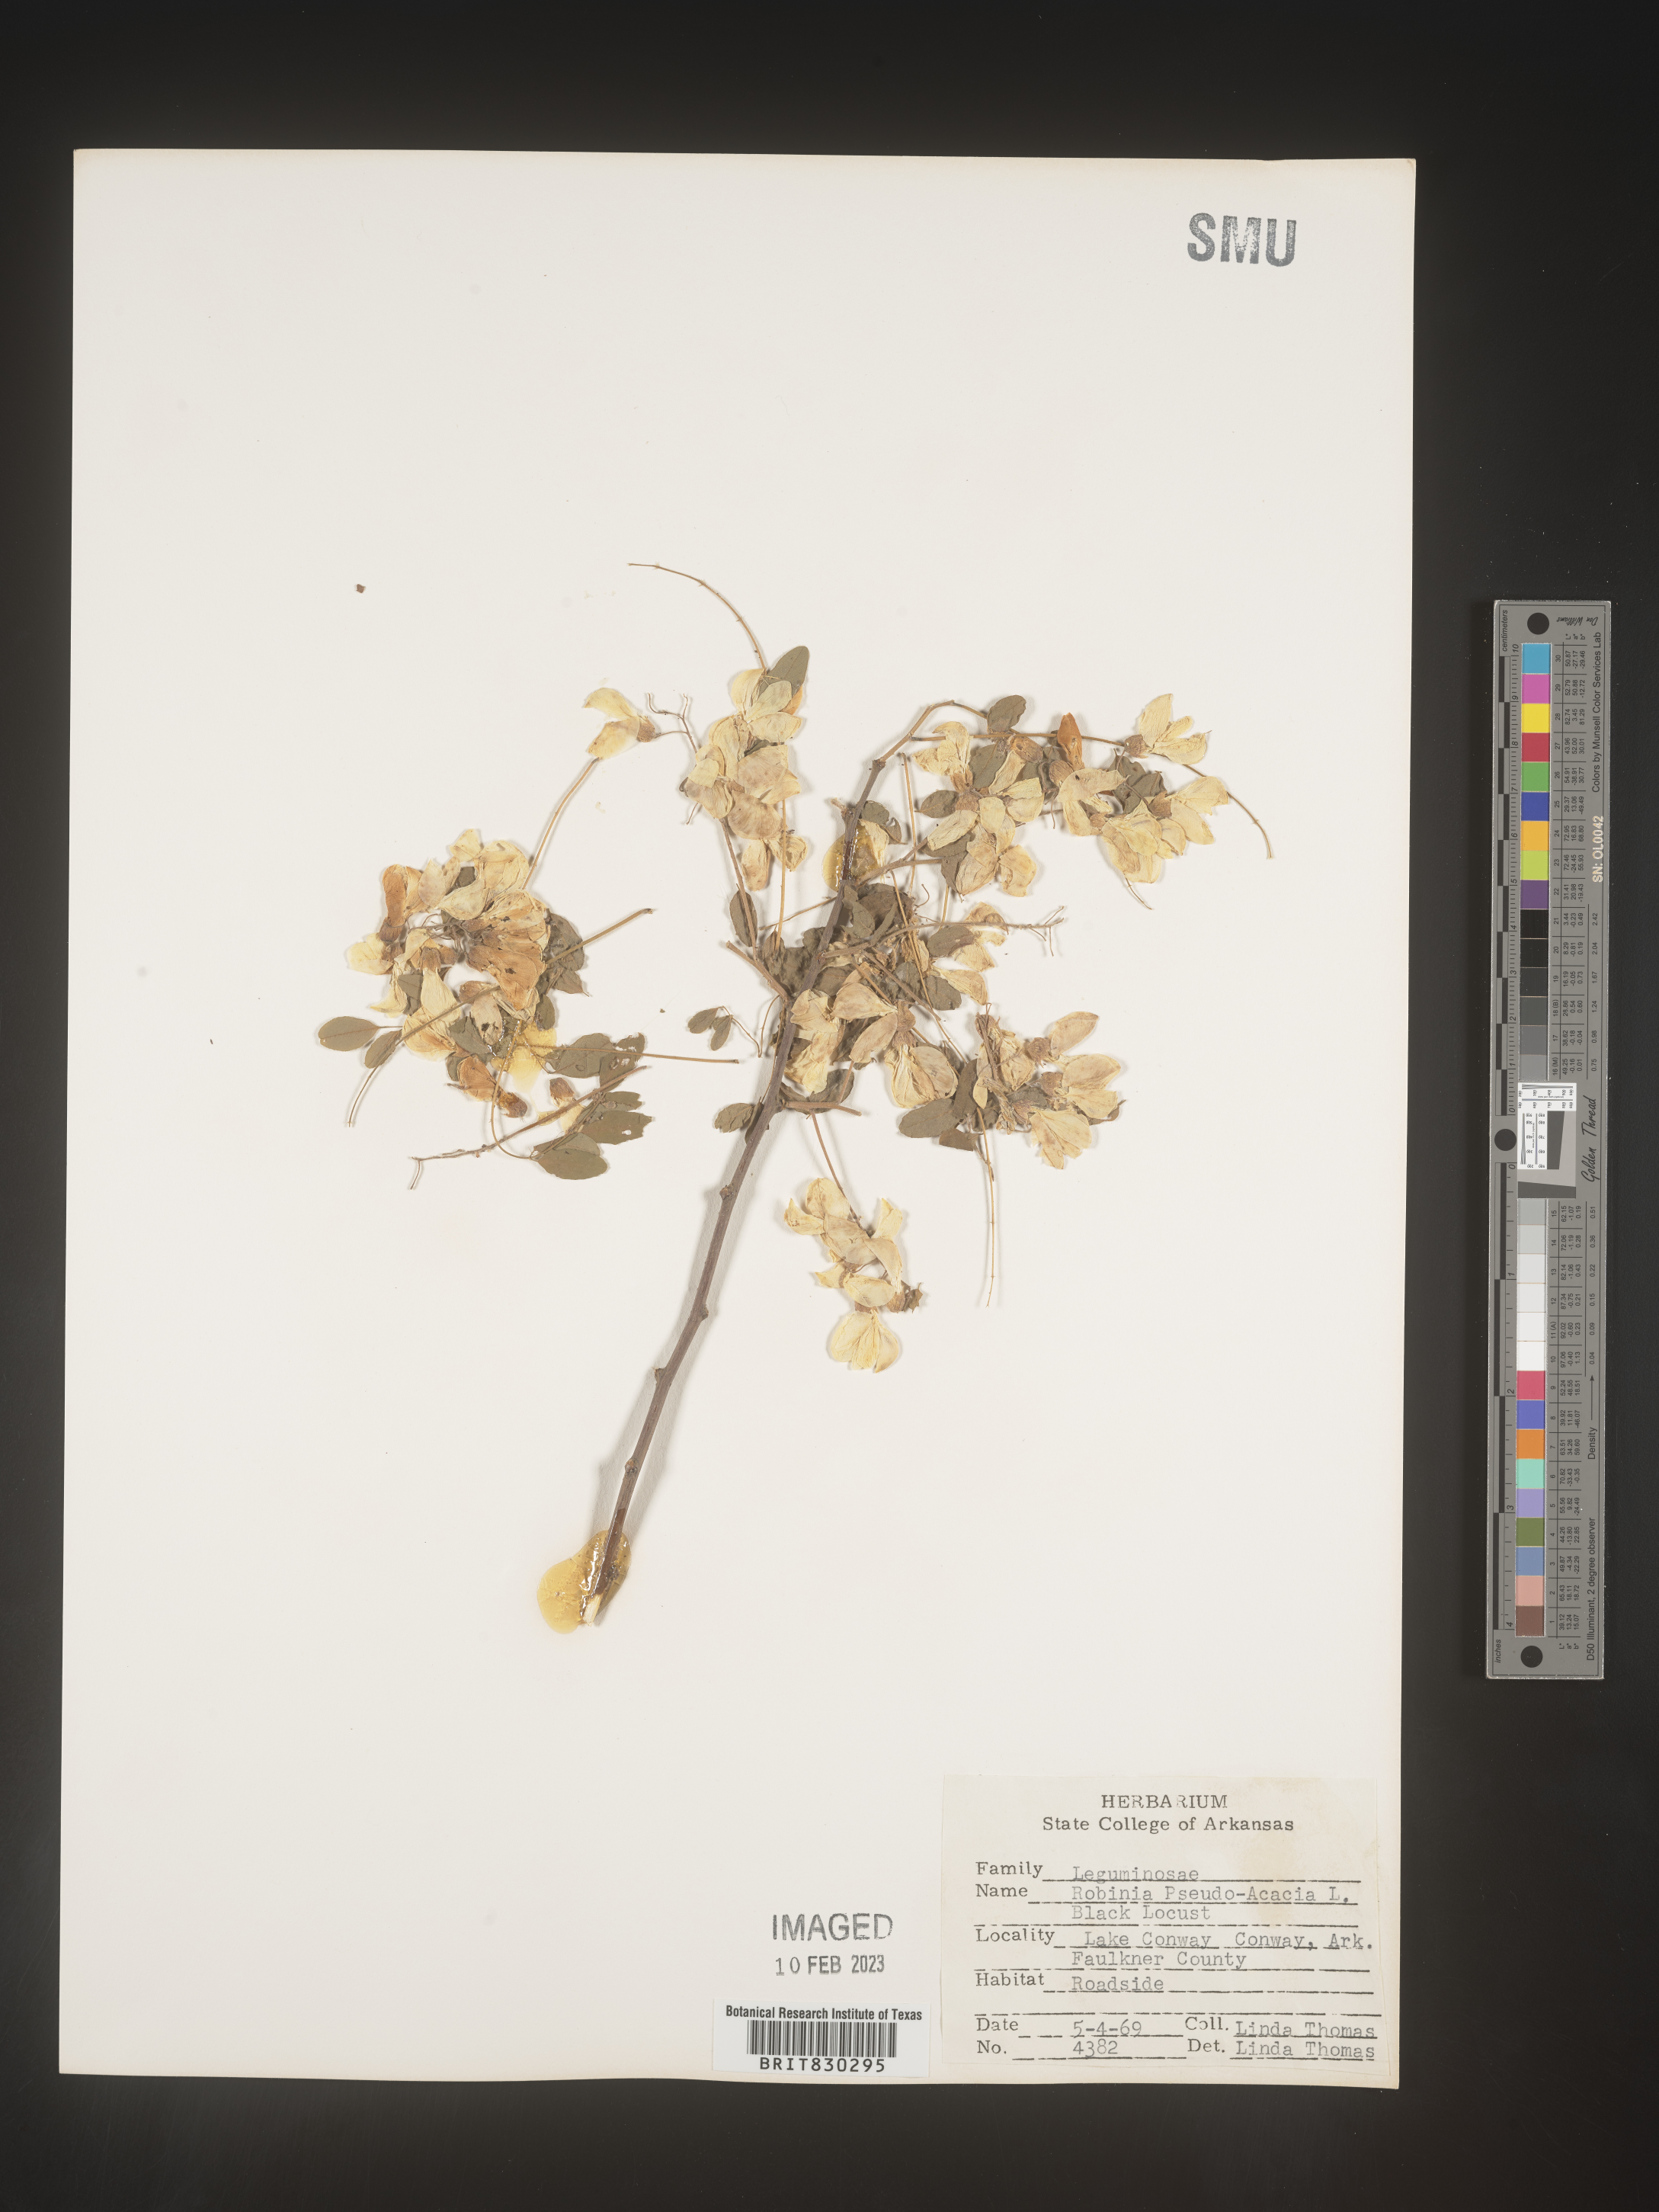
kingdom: Plantae
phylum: Tracheophyta
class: Magnoliopsida
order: Fabales
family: Fabaceae
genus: Robinia
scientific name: Robinia pseudoacacia
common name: Black locust
